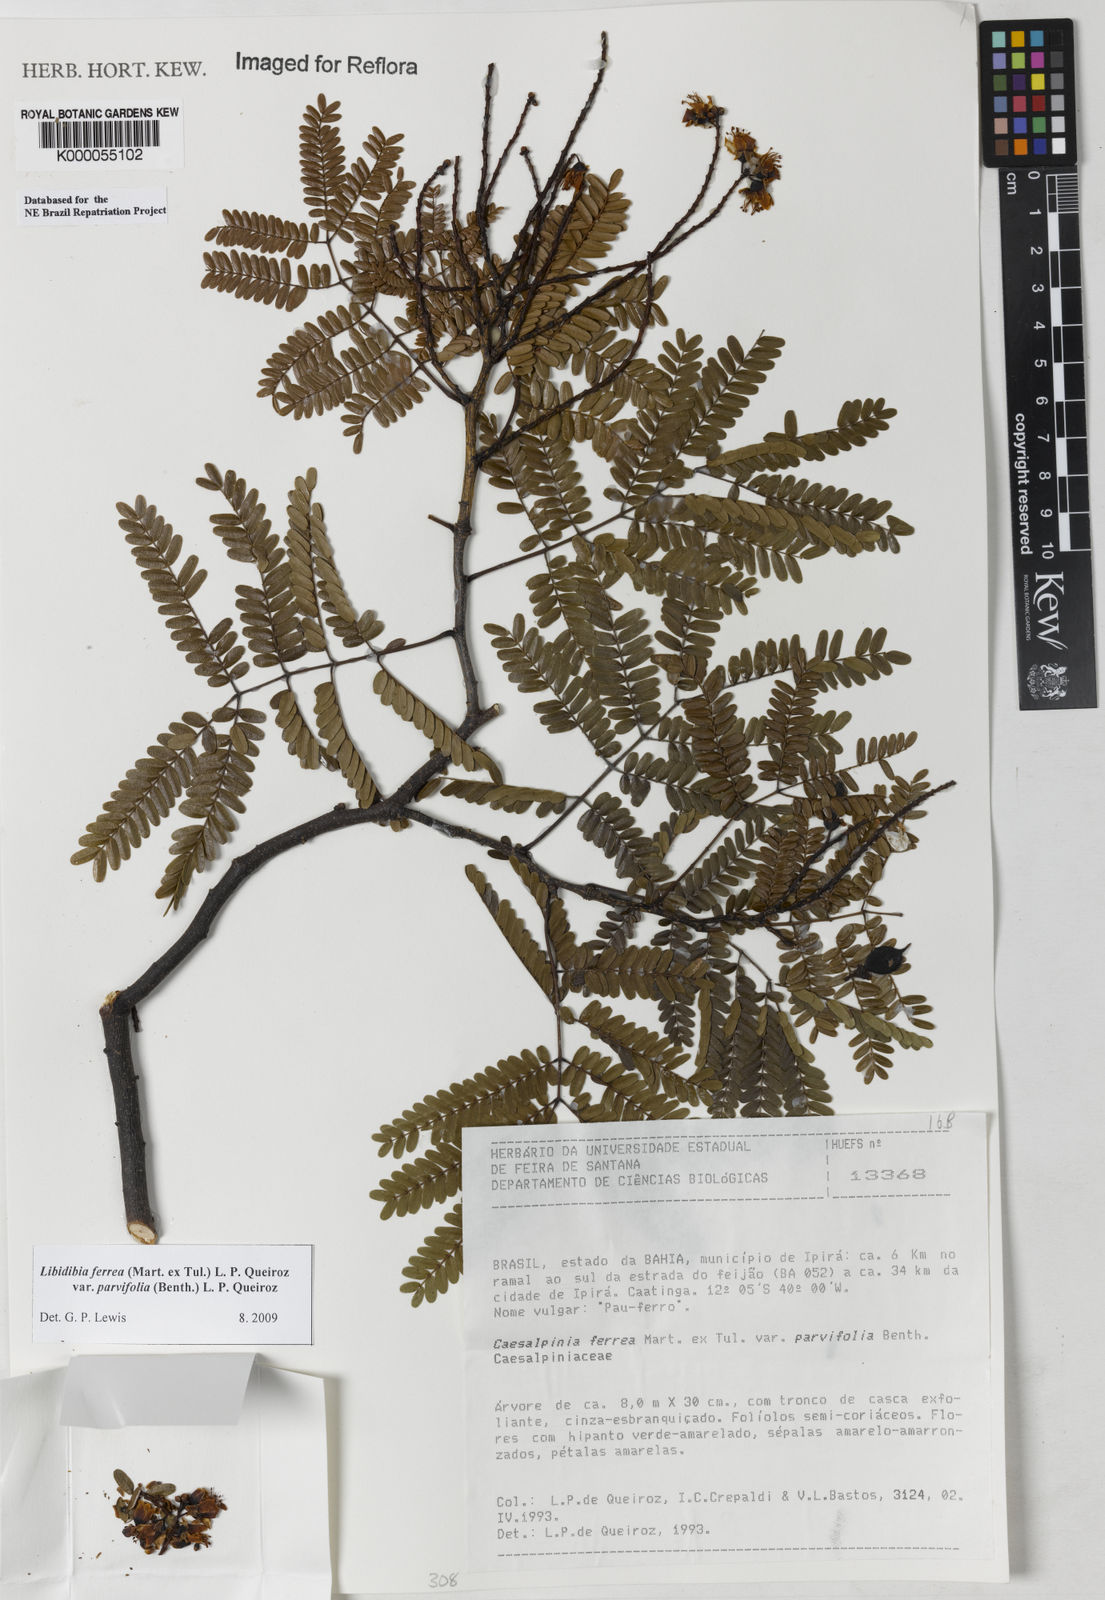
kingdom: Plantae
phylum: Tracheophyta
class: Magnoliopsida
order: Fabales
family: Fabaceae
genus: Libidibia
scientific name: Libidibia ferrea
